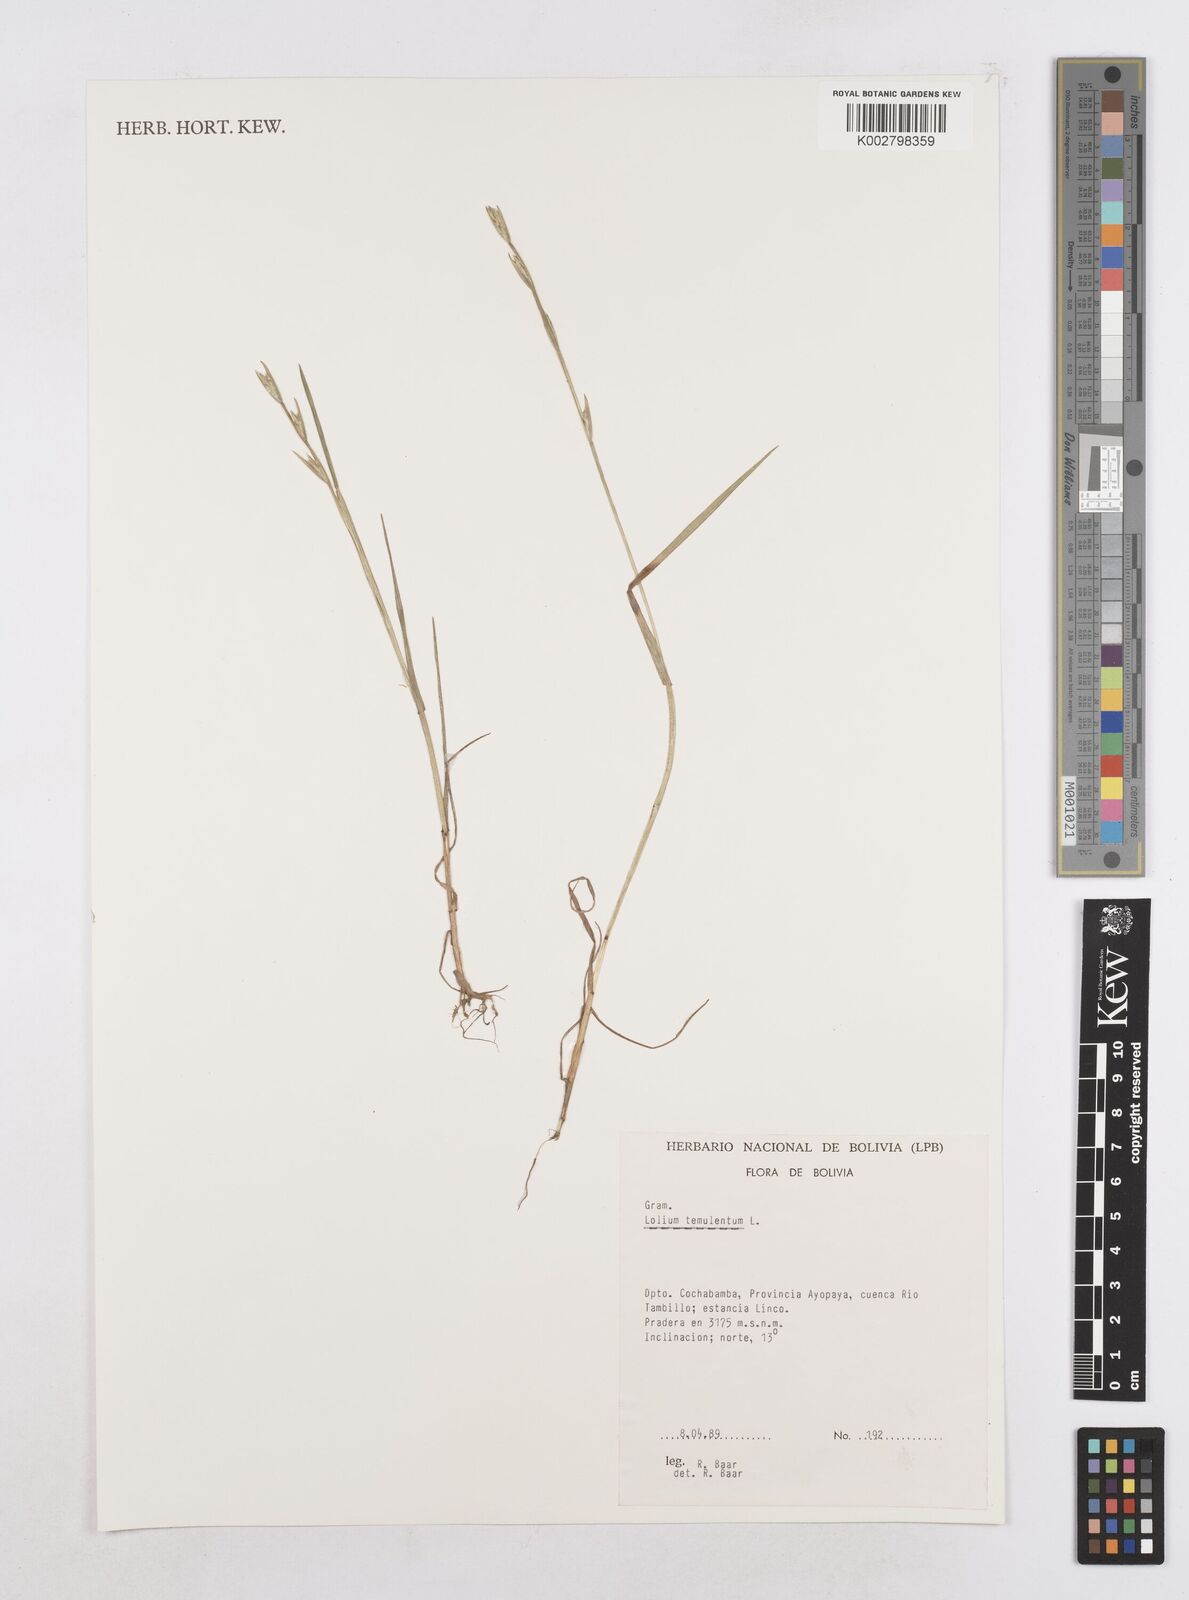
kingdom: Plantae
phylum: Tracheophyta
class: Liliopsida
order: Poales
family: Poaceae
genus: Lolium
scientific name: Lolium temulentum
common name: Darnel
